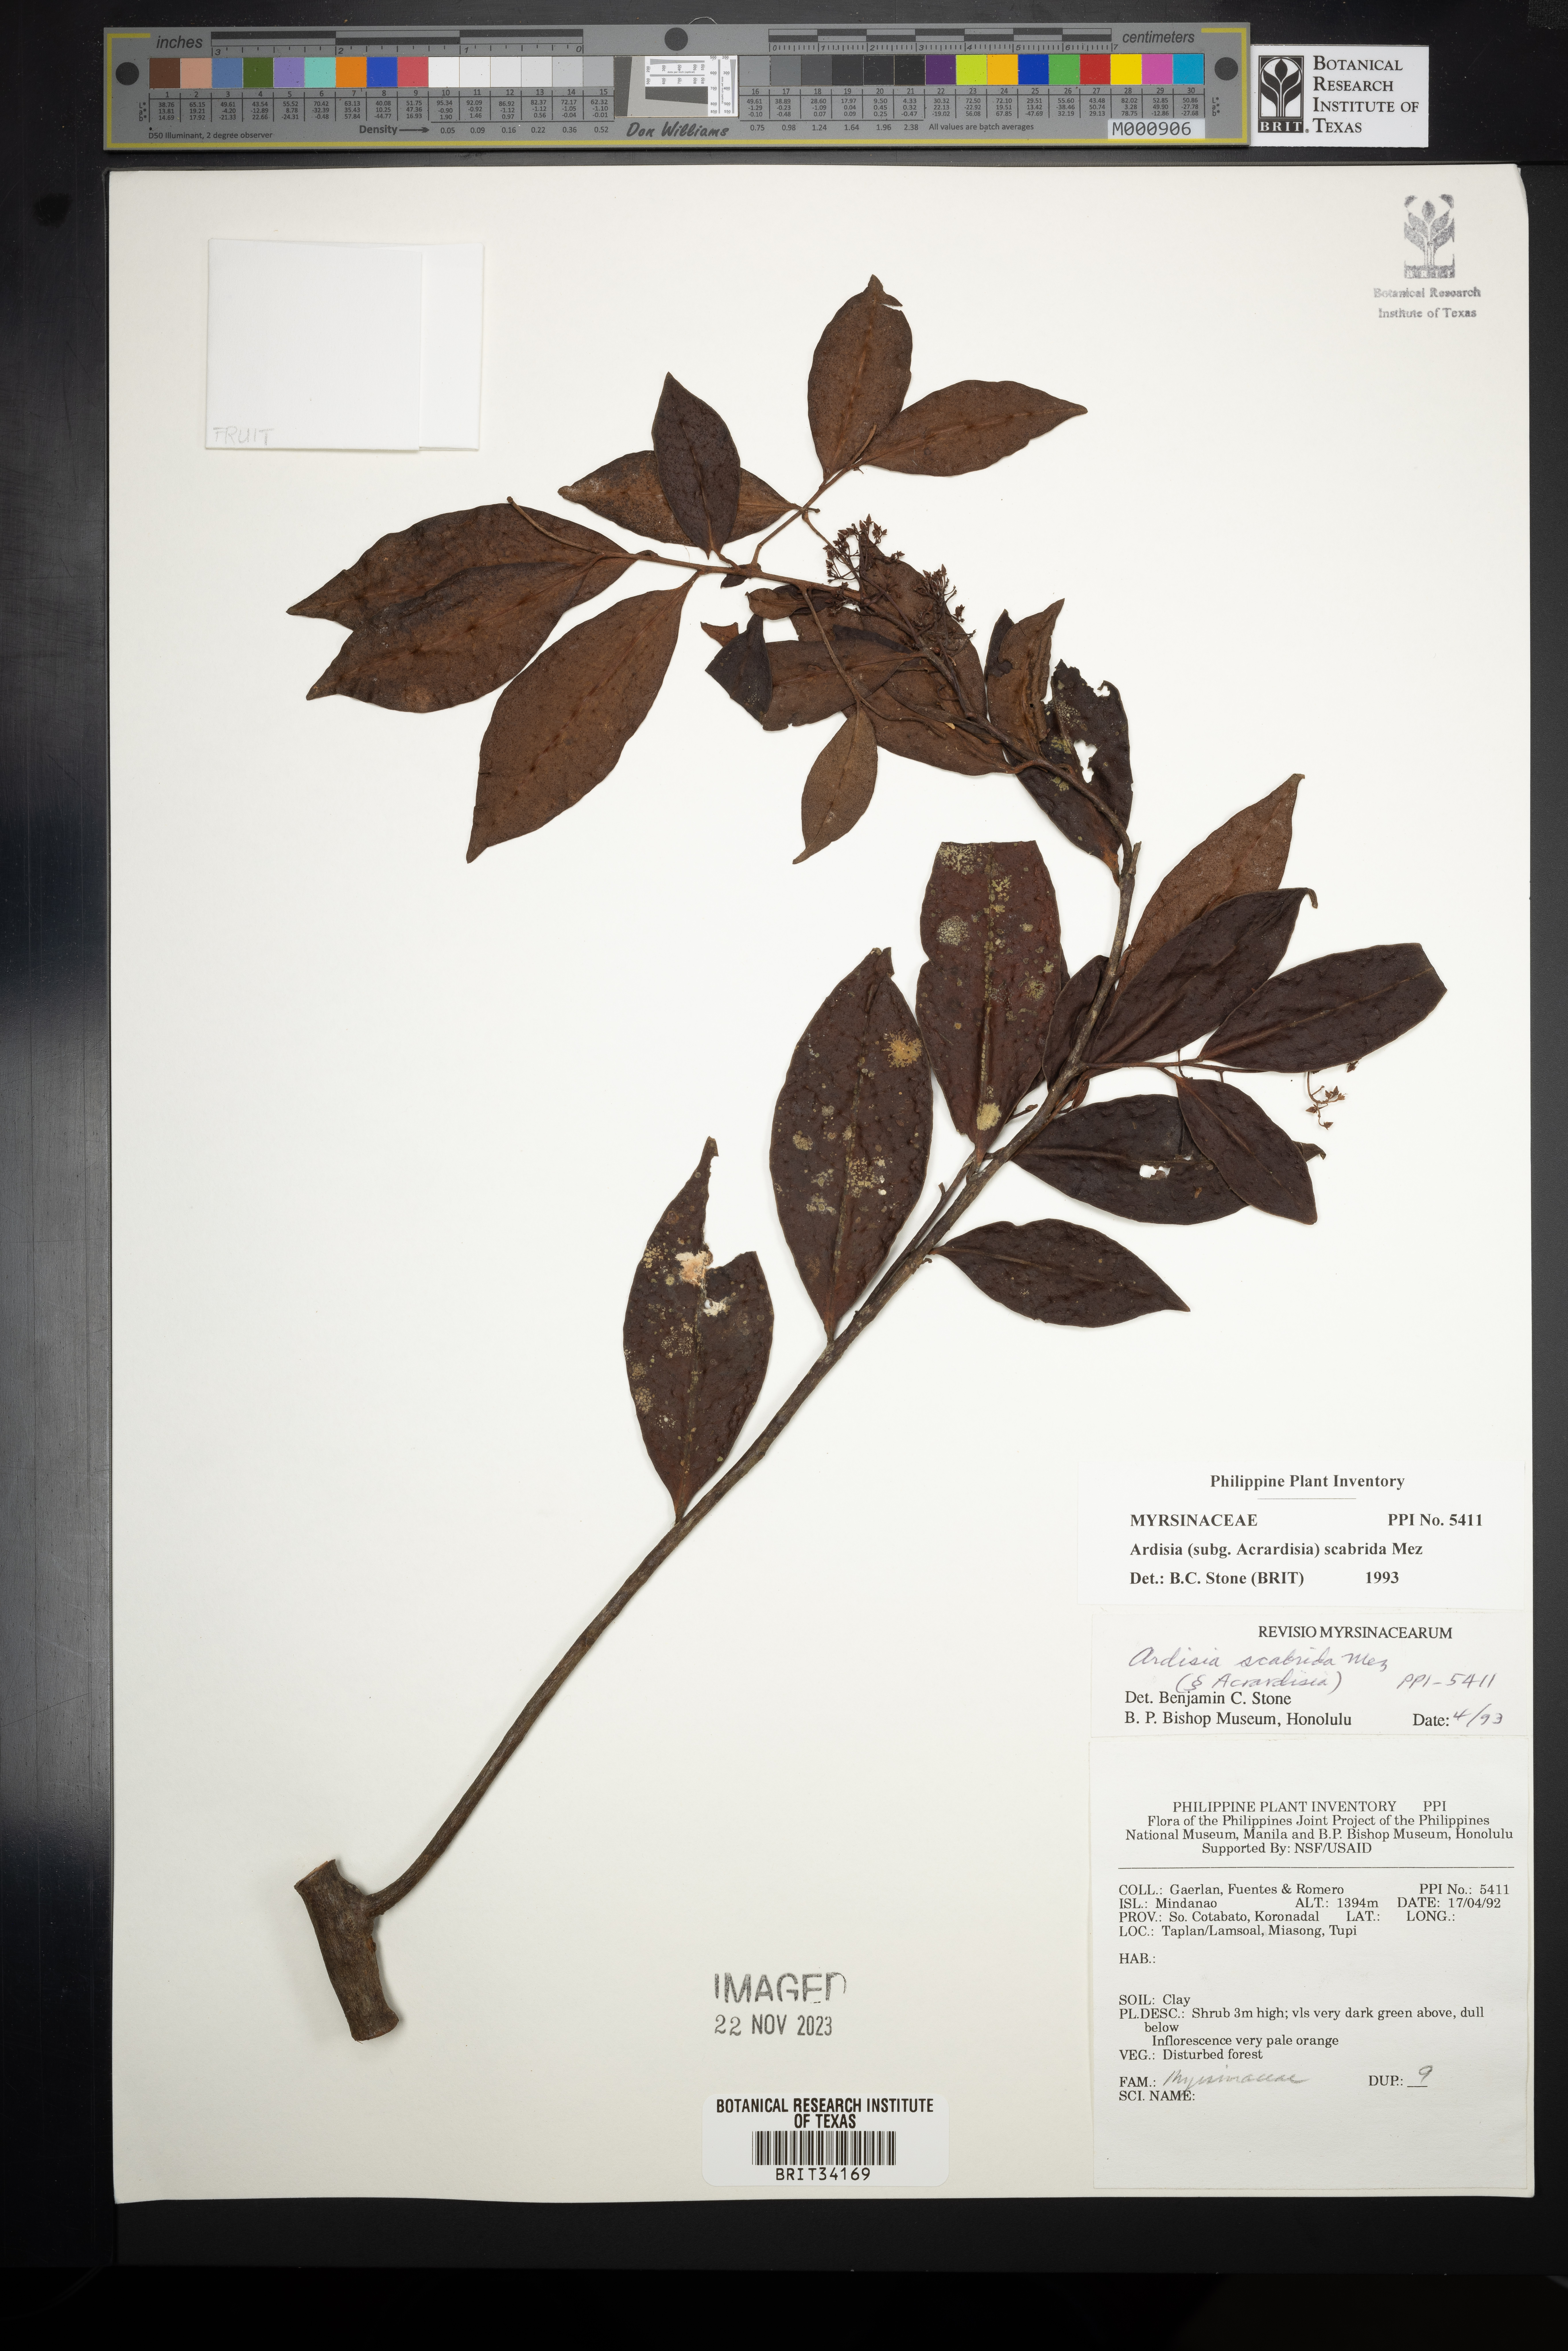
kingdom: Plantae
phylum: Tracheophyta
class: Magnoliopsida
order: Ericales
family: Primulaceae
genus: Ardisia
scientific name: Ardisia scabrida
